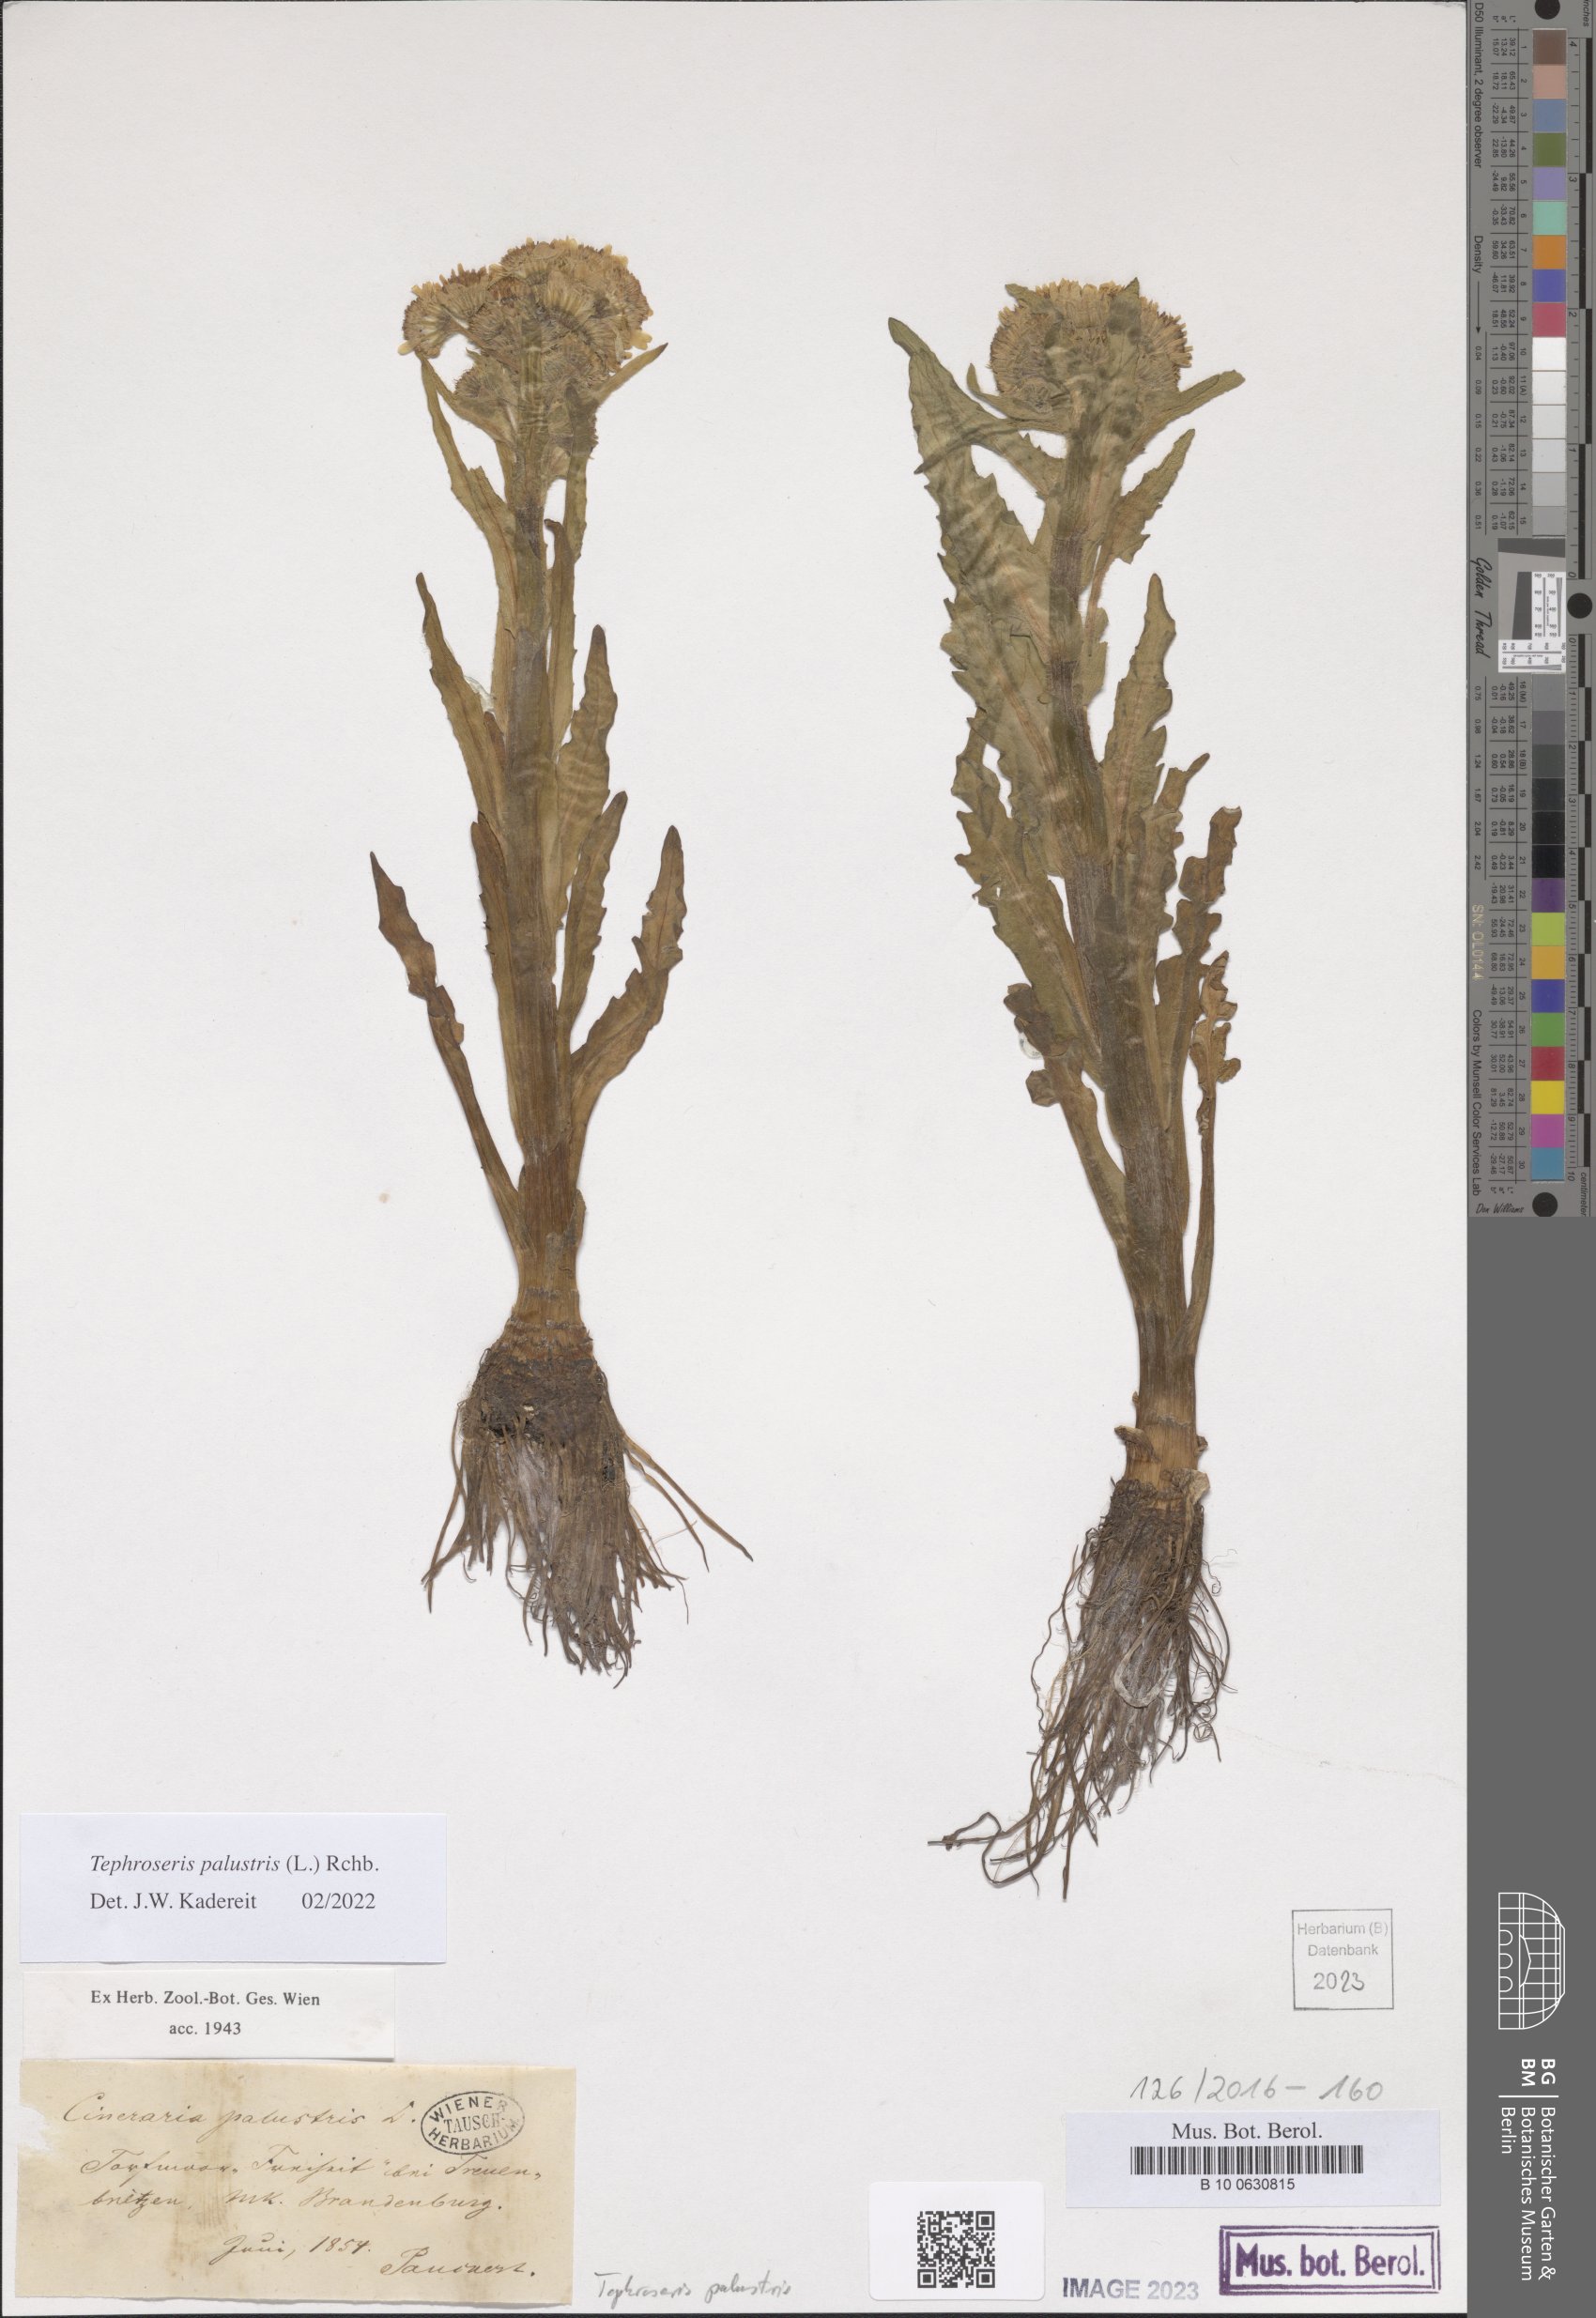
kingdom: Plantae
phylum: Tracheophyta
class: Magnoliopsida
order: Asterales
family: Asteraceae
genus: Tephroseris
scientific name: Tephroseris palustris
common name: Marsh fleawort
